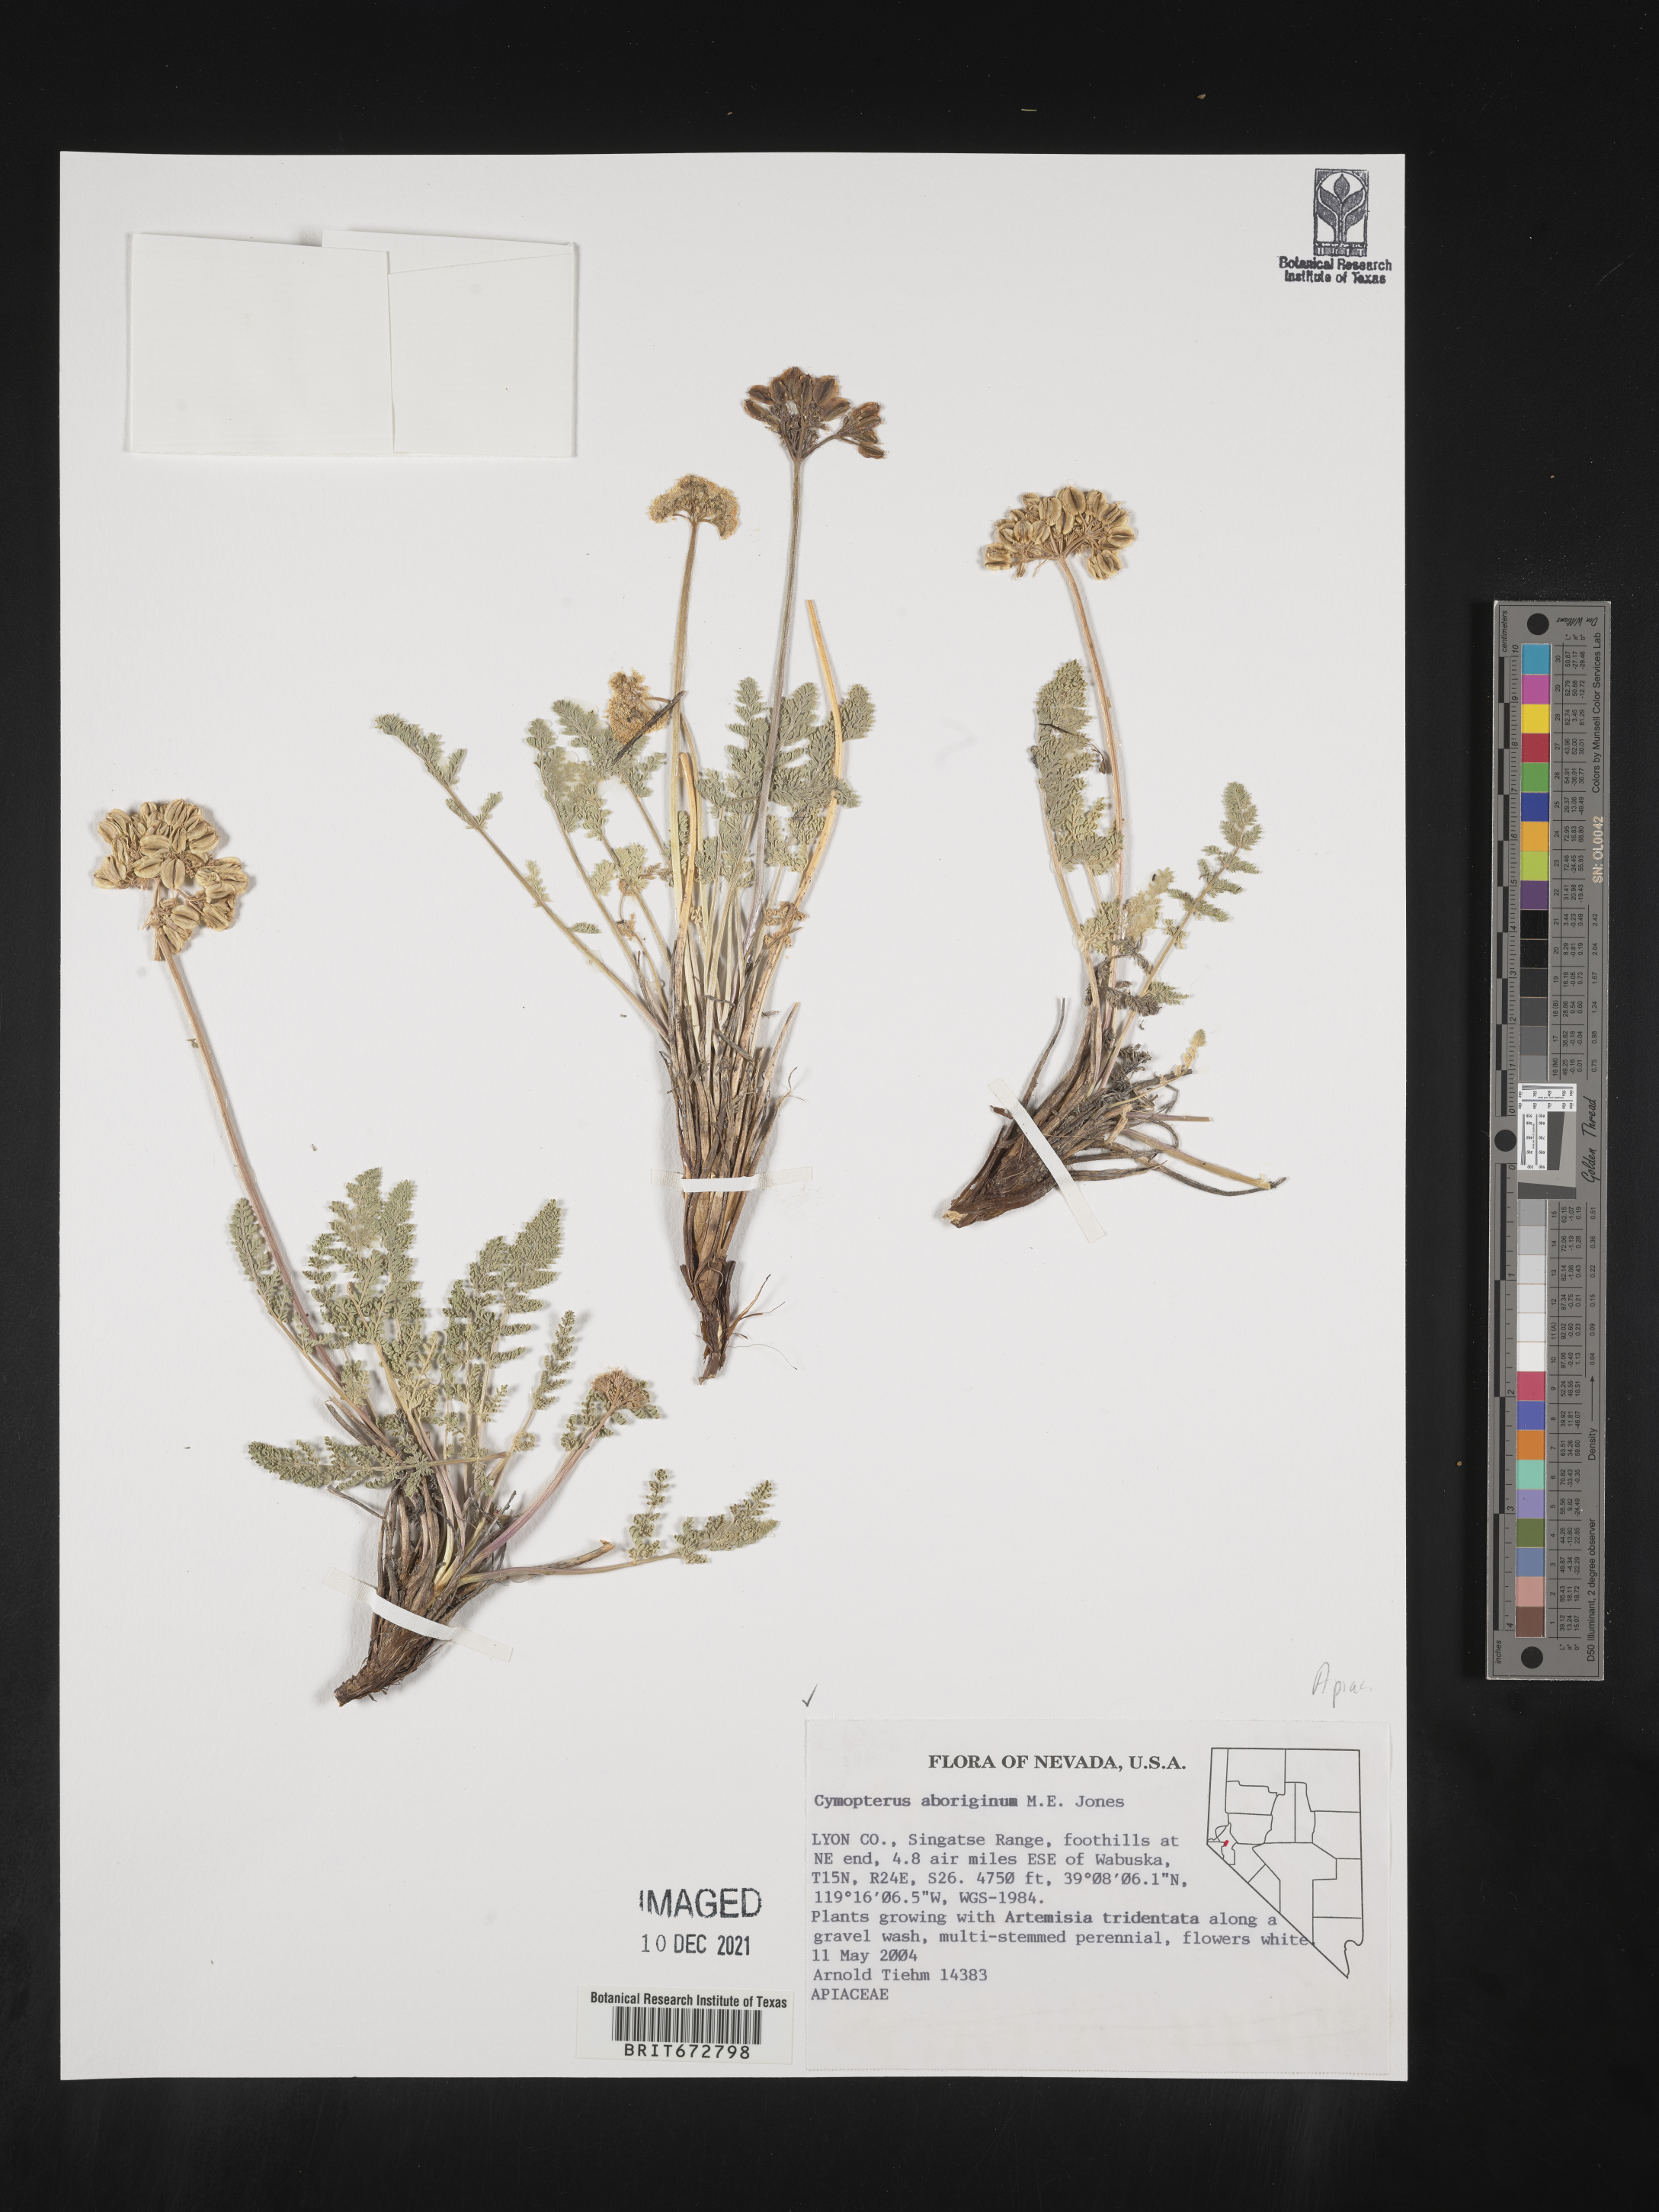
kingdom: Plantae
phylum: Tracheophyta
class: Magnoliopsida
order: Apiales
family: Apiaceae
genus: Aulospermum
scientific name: Aulospermum aboriginum
